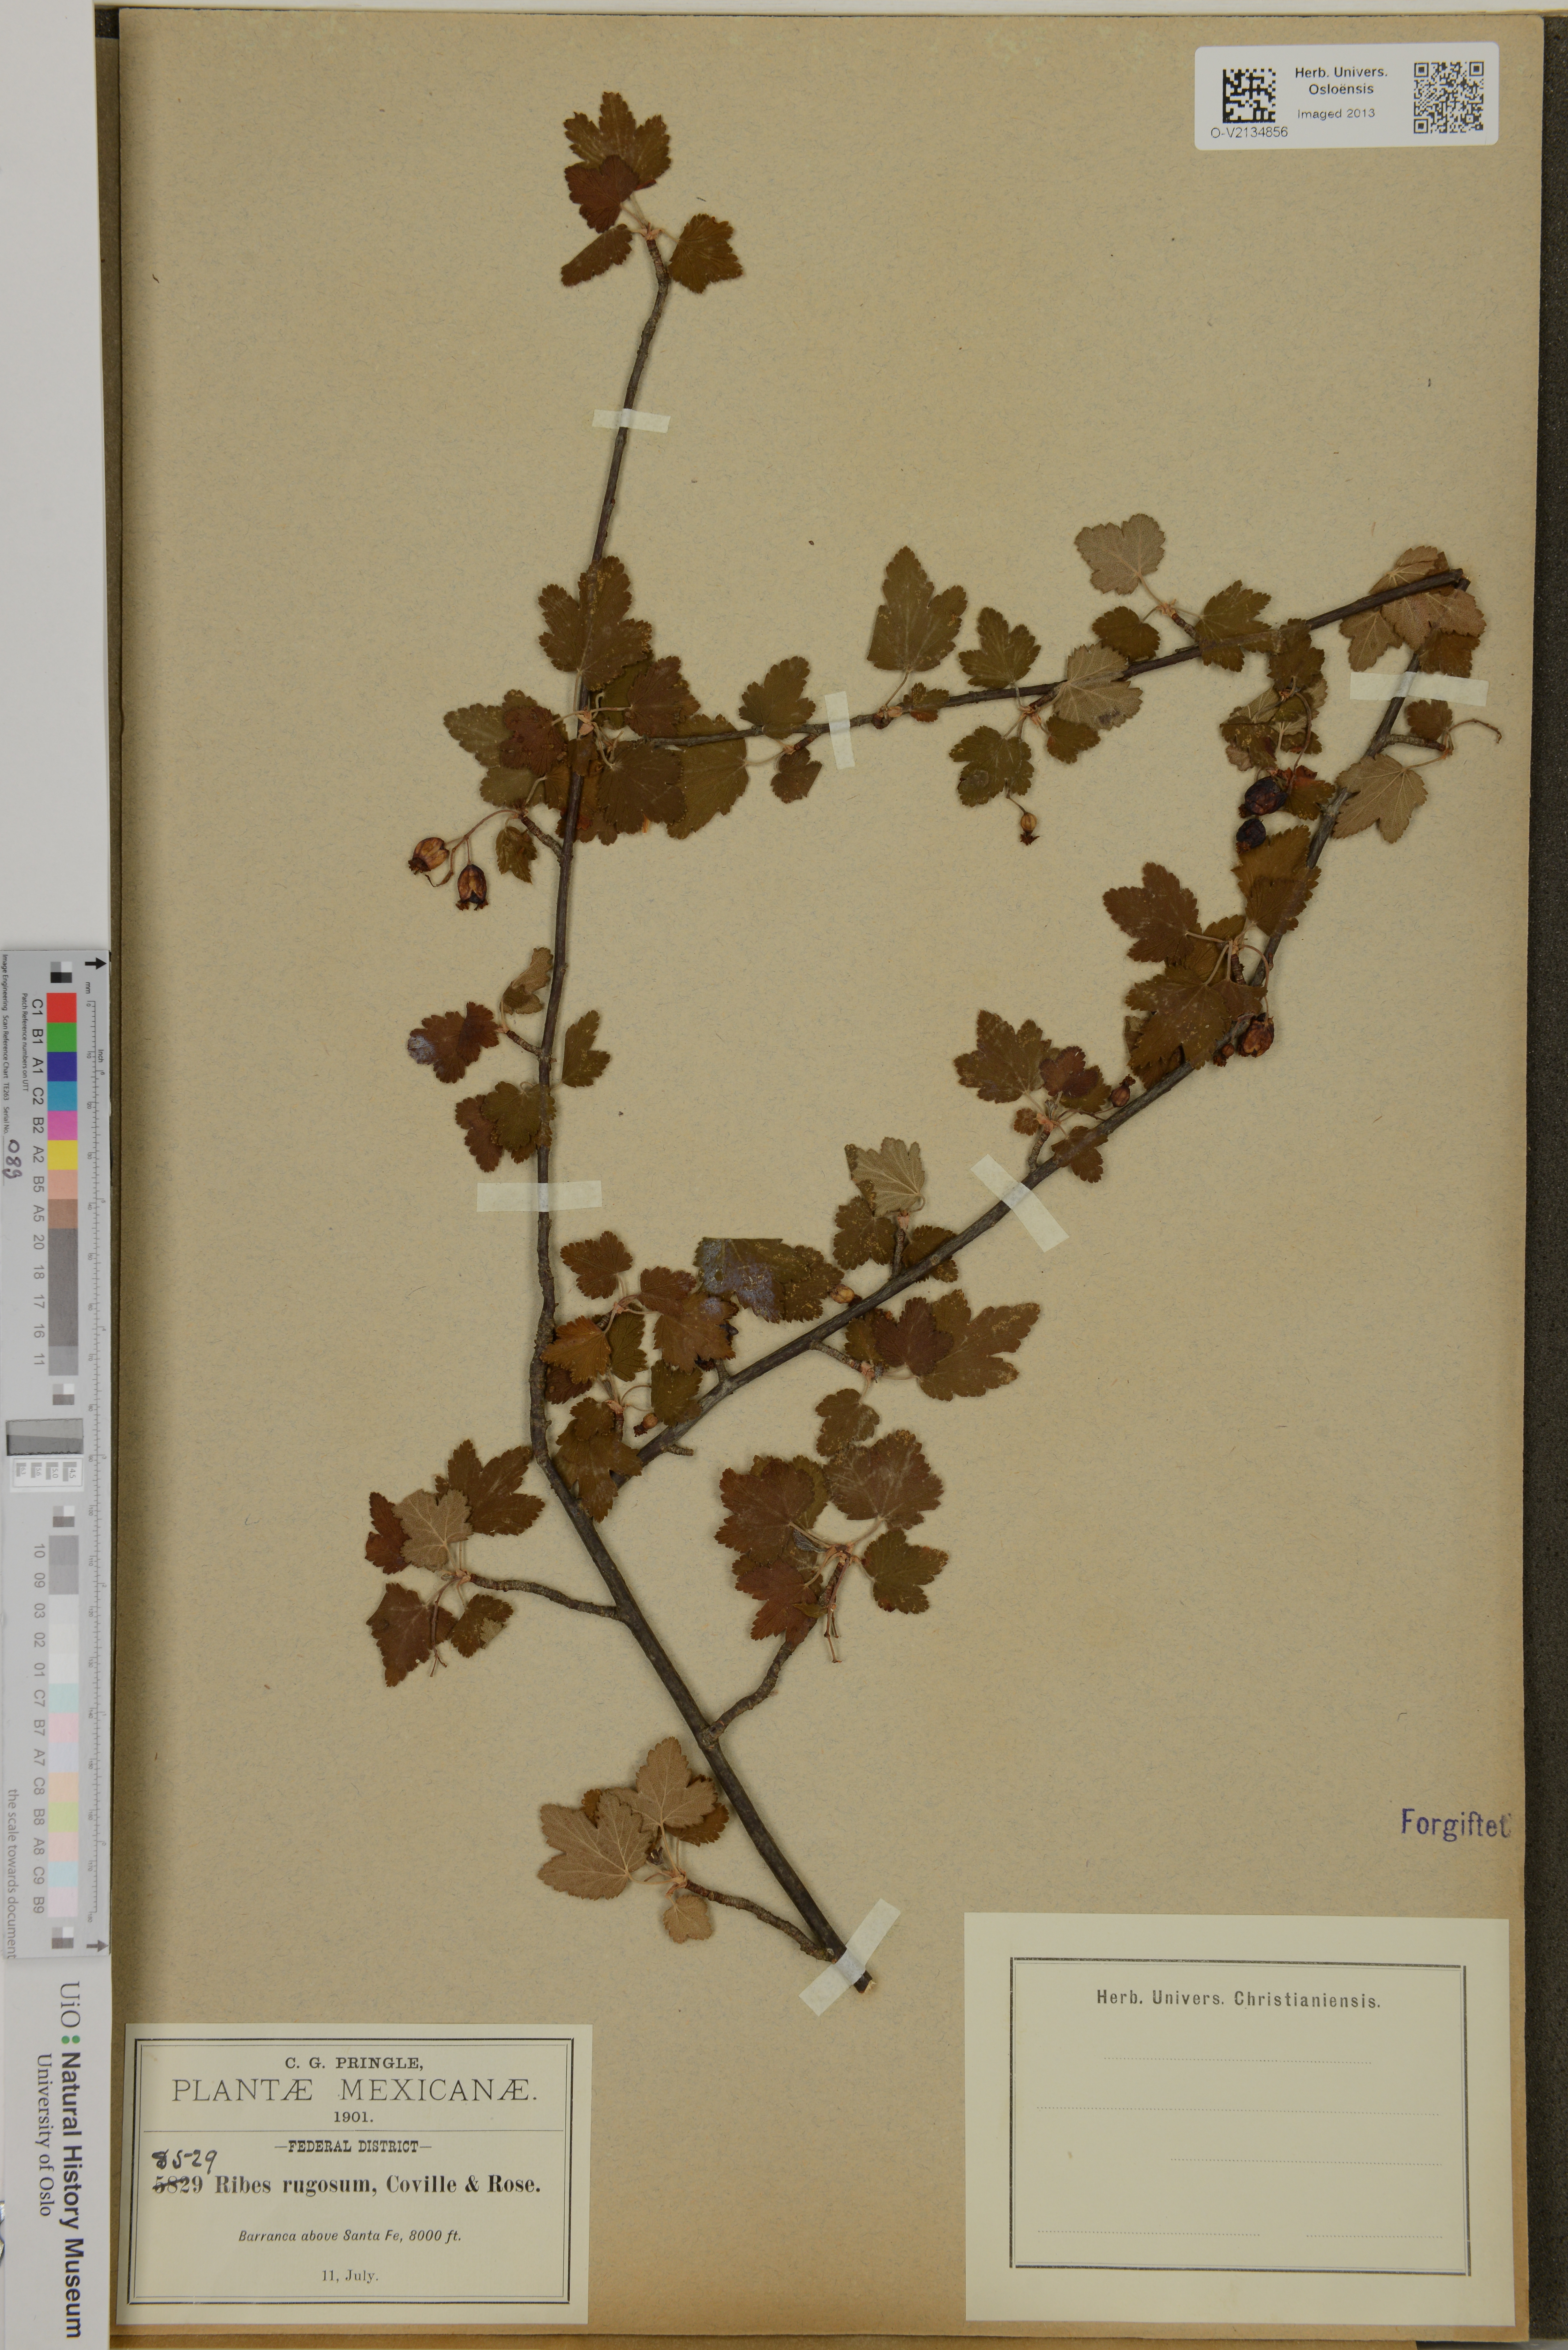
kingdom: Plantae
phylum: Tracheophyta
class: Magnoliopsida
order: Saxifragales
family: Grossulariaceae
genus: Ribes
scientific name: Ribes affine
